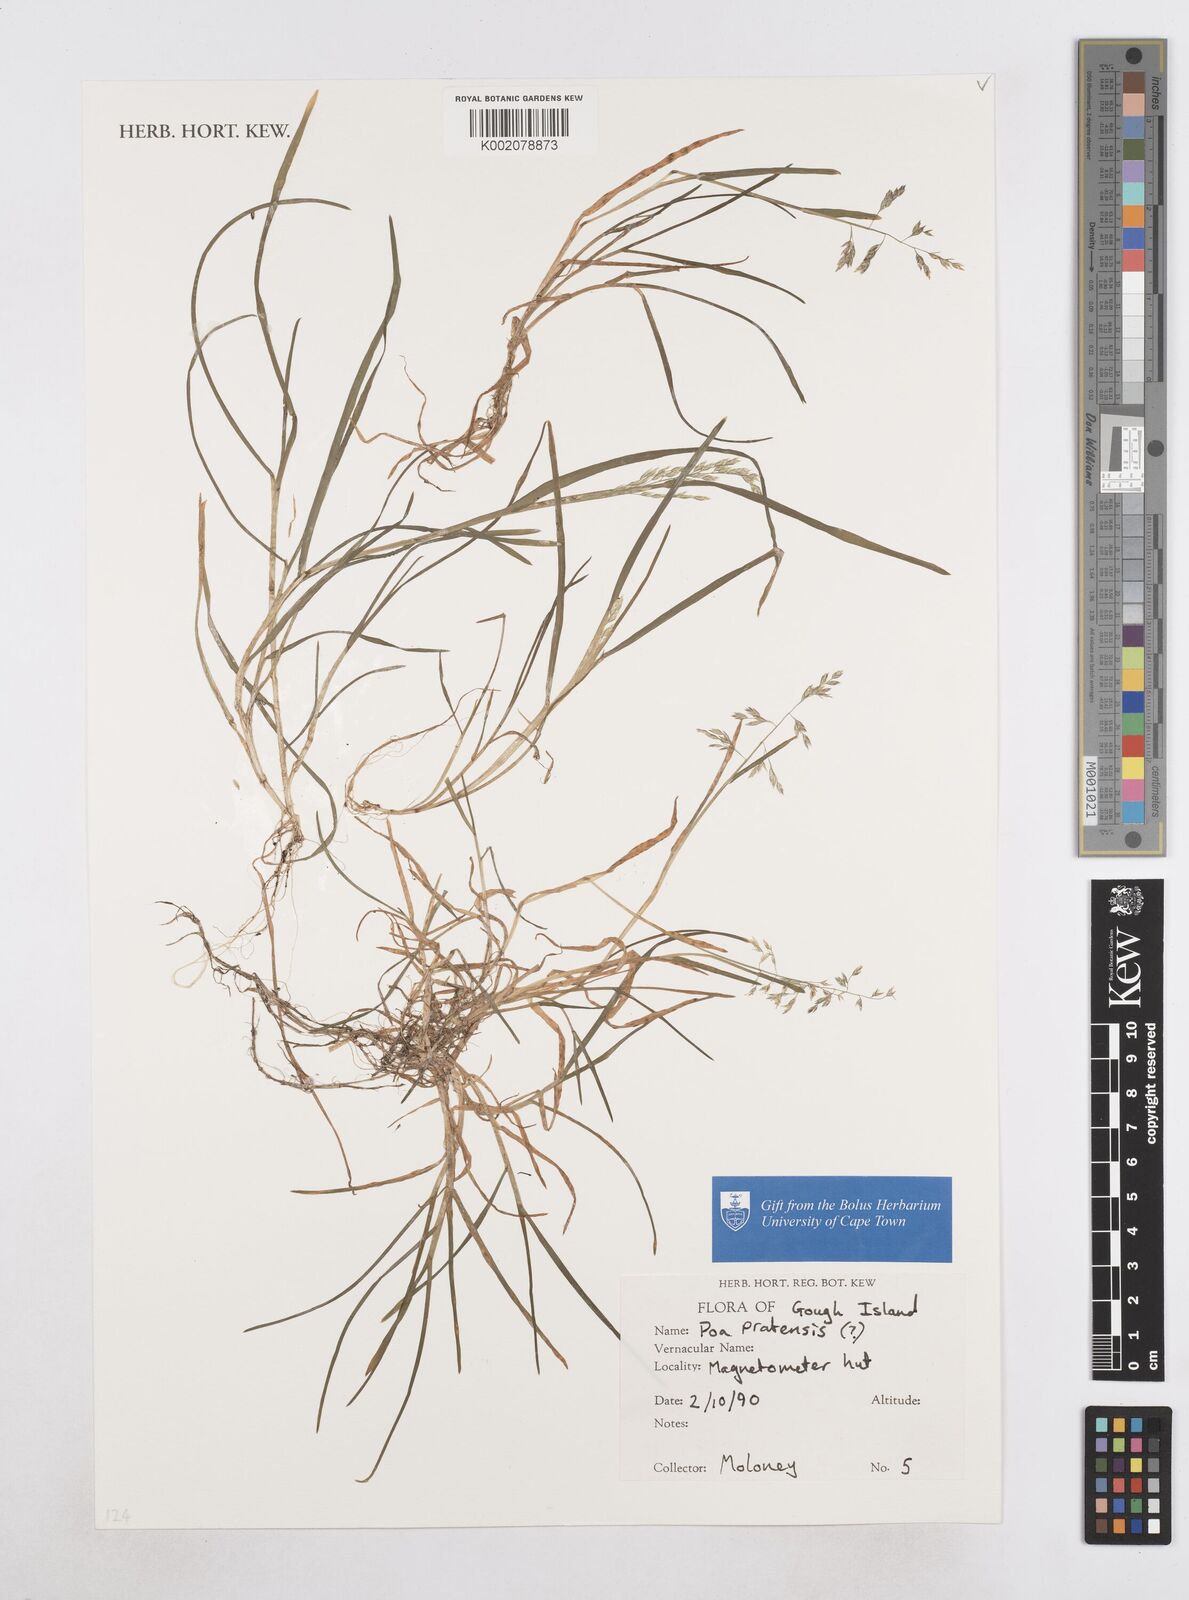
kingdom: Plantae
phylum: Tracheophyta
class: Liliopsida
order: Poales
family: Poaceae
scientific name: Poaceae
